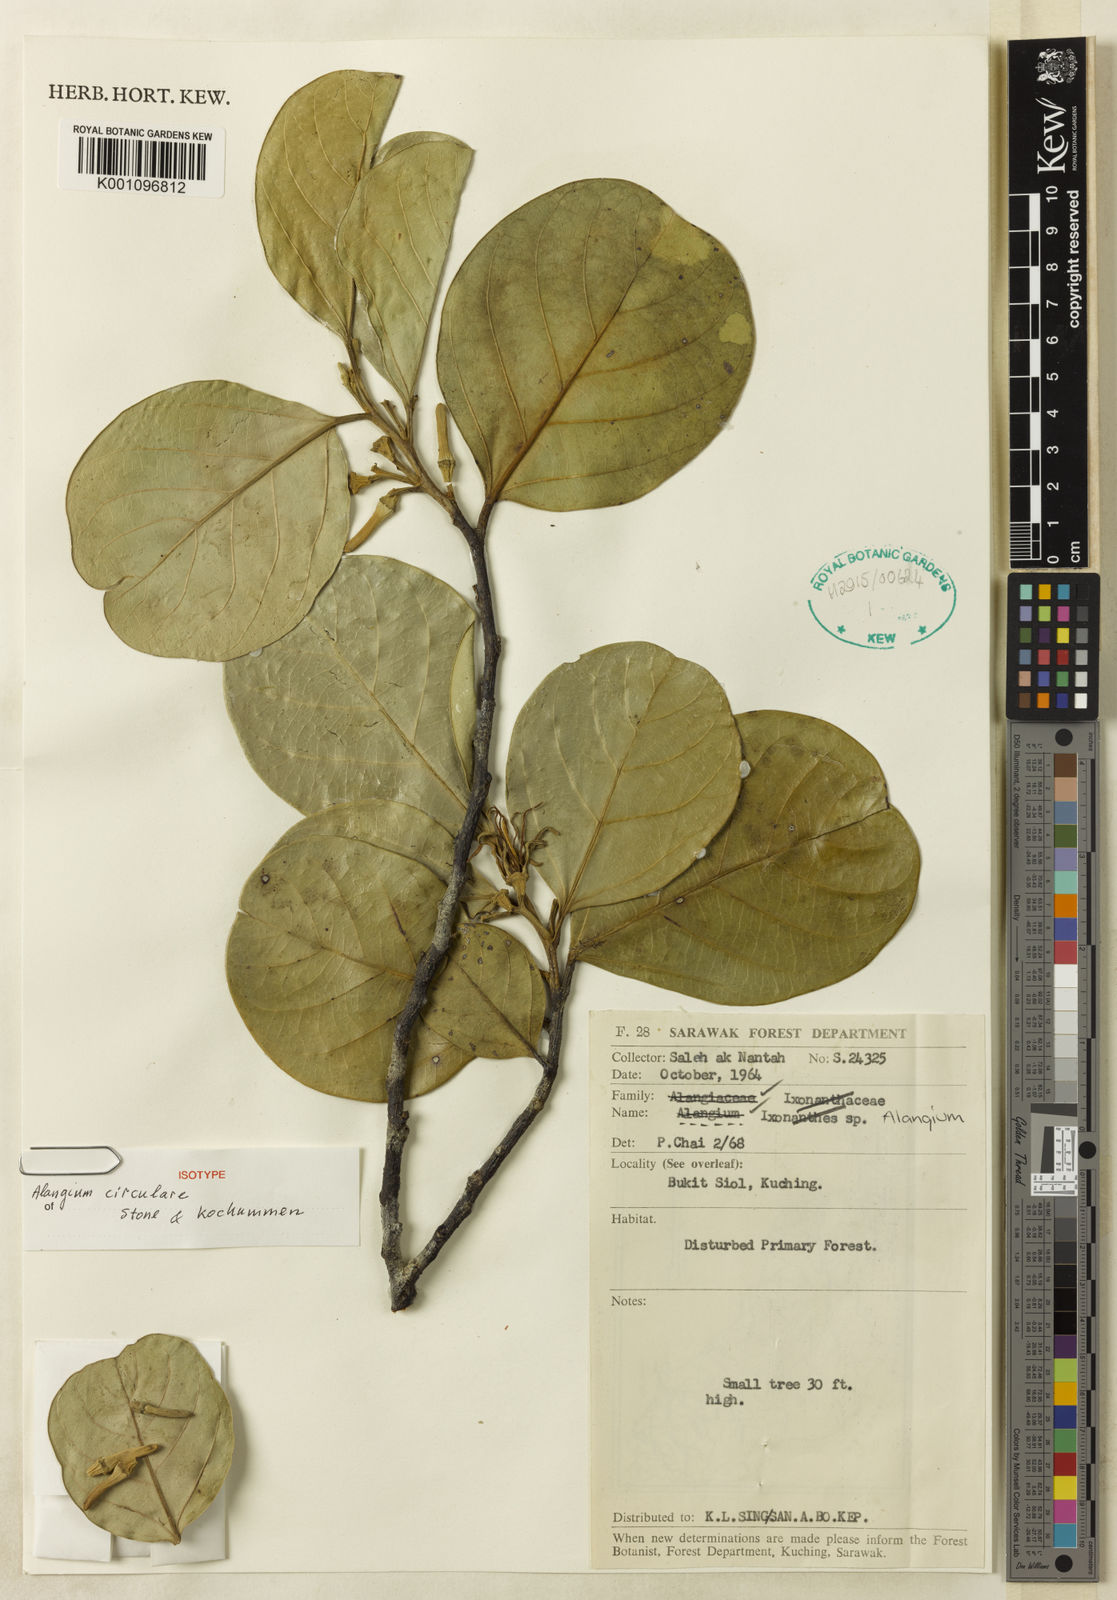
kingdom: Plantae
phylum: Tracheophyta
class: Magnoliopsida
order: Cornales
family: Cornaceae
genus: Alangium
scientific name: Alangium circulare
